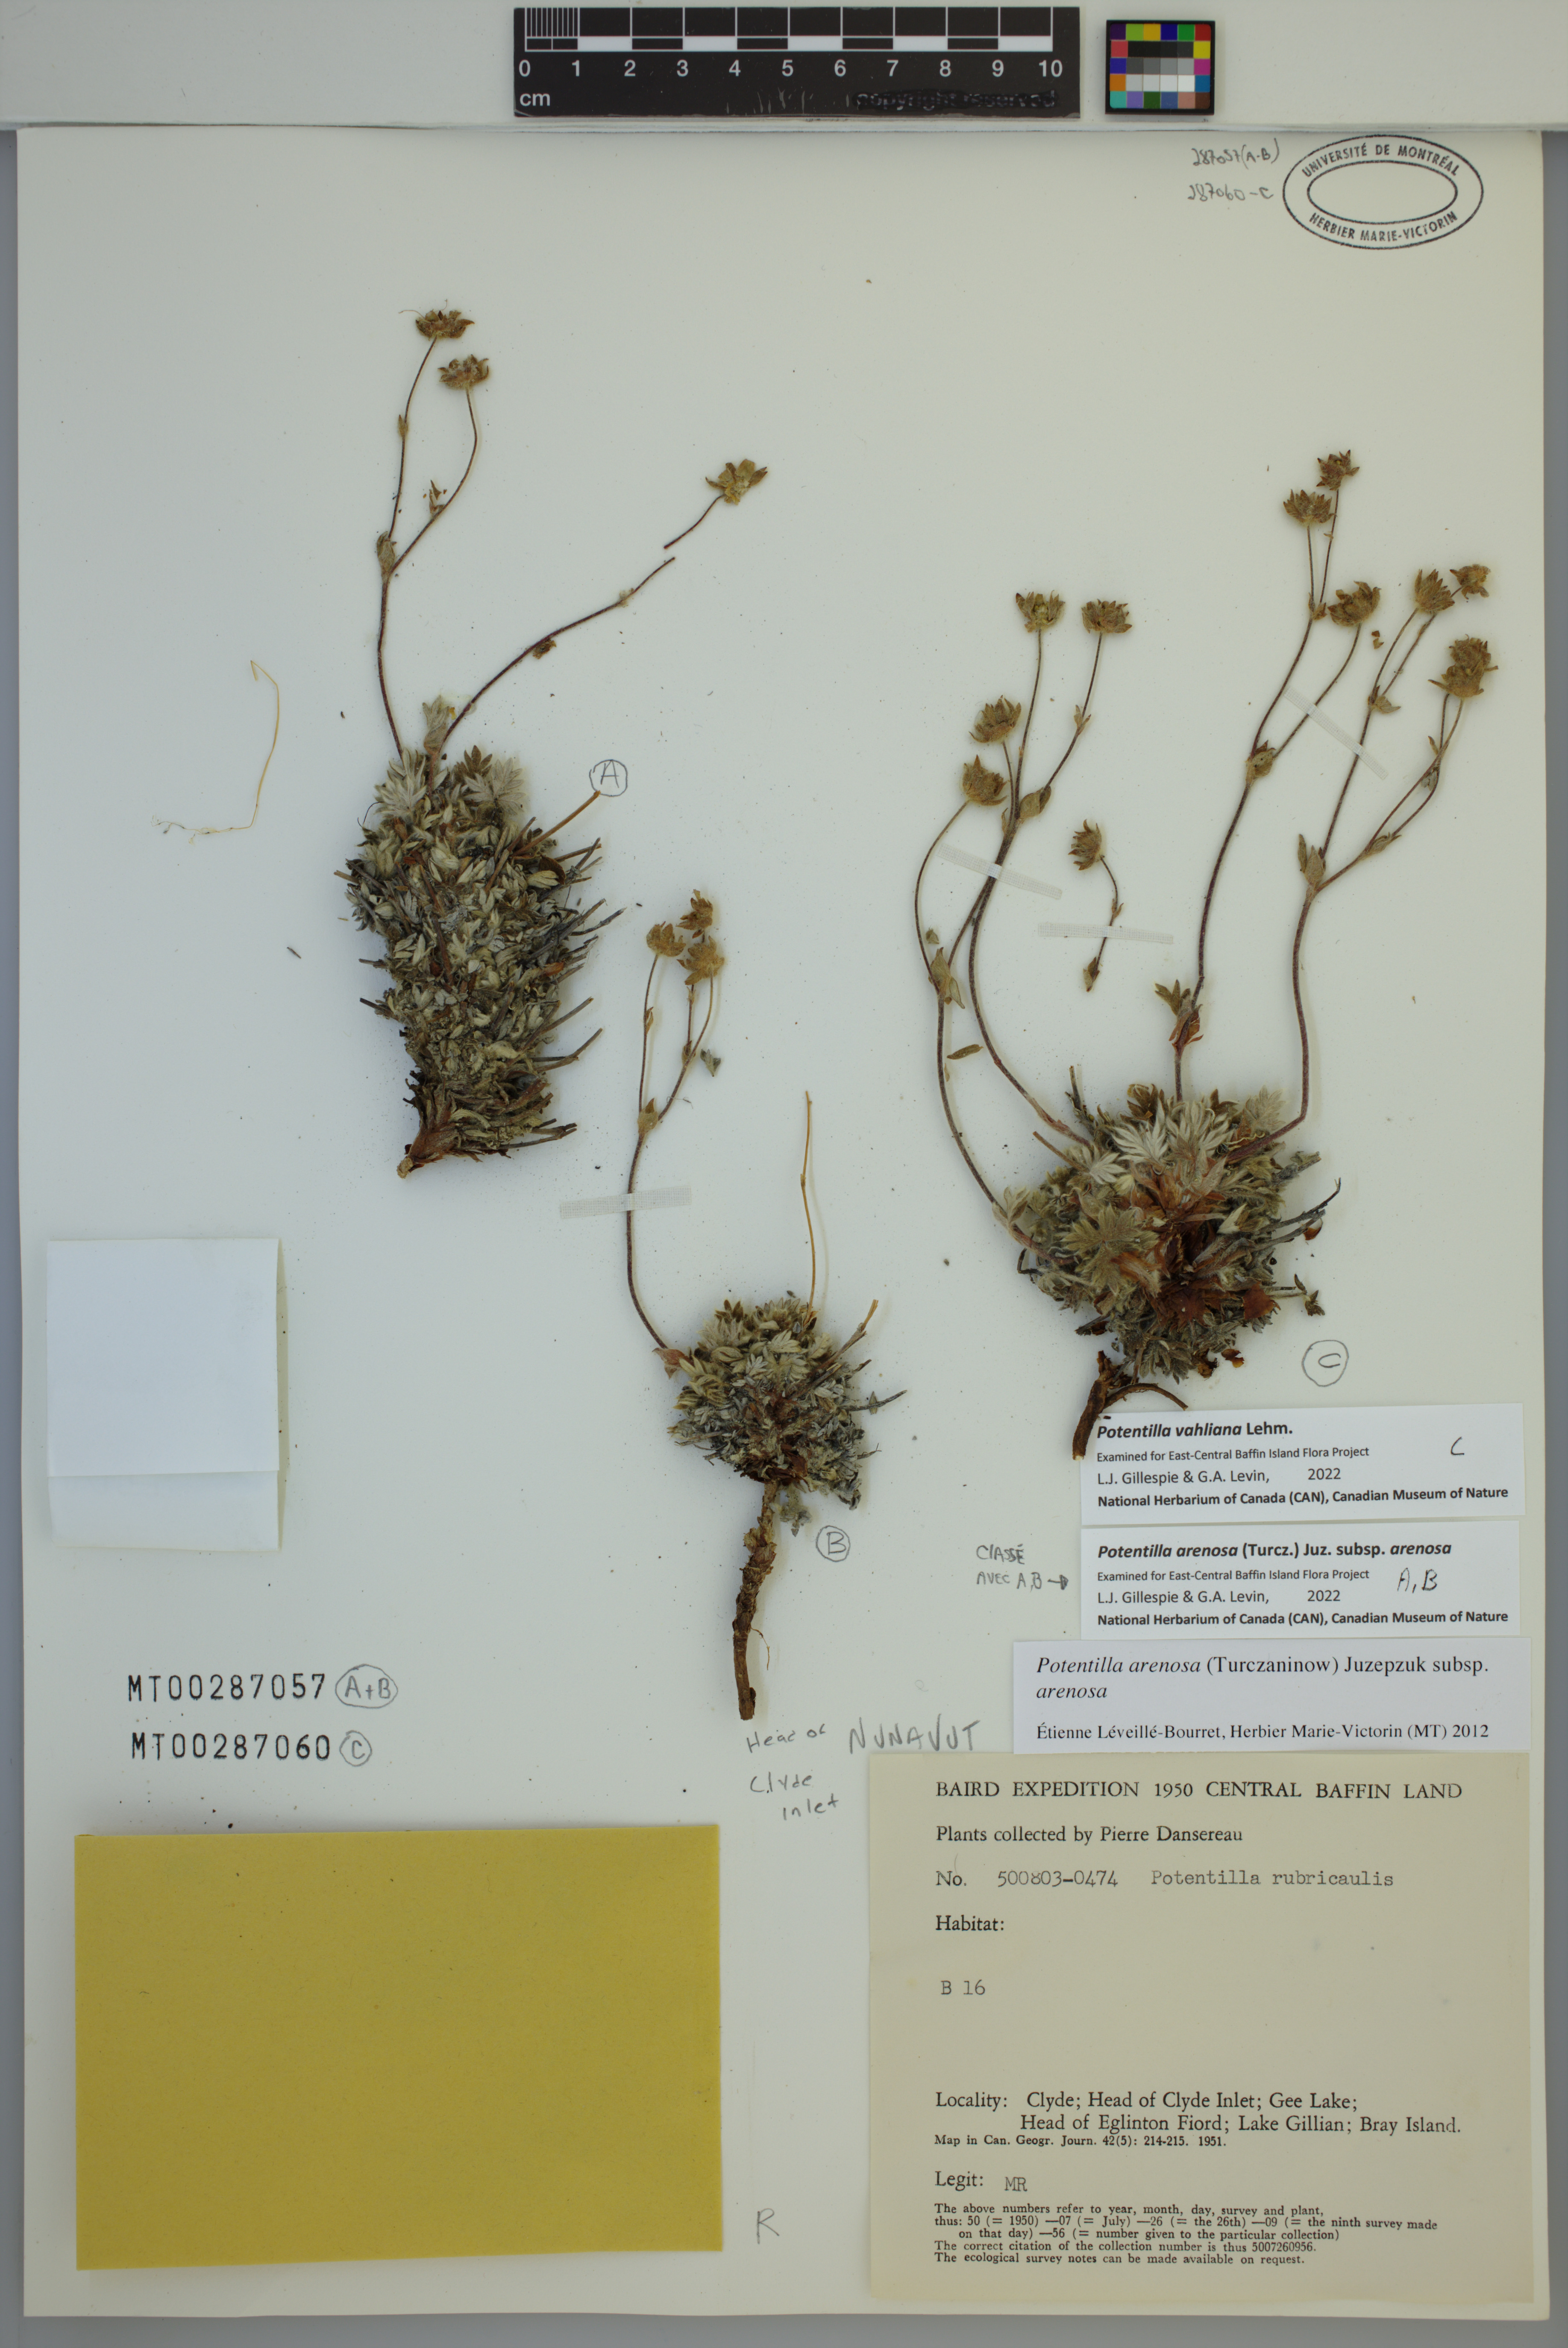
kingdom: Plantae
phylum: Tracheophyta
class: Magnoliopsida
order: Rosales
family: Rosaceae
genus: Potentilla
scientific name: Potentilla arenosa
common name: Bluff cinquefoil
